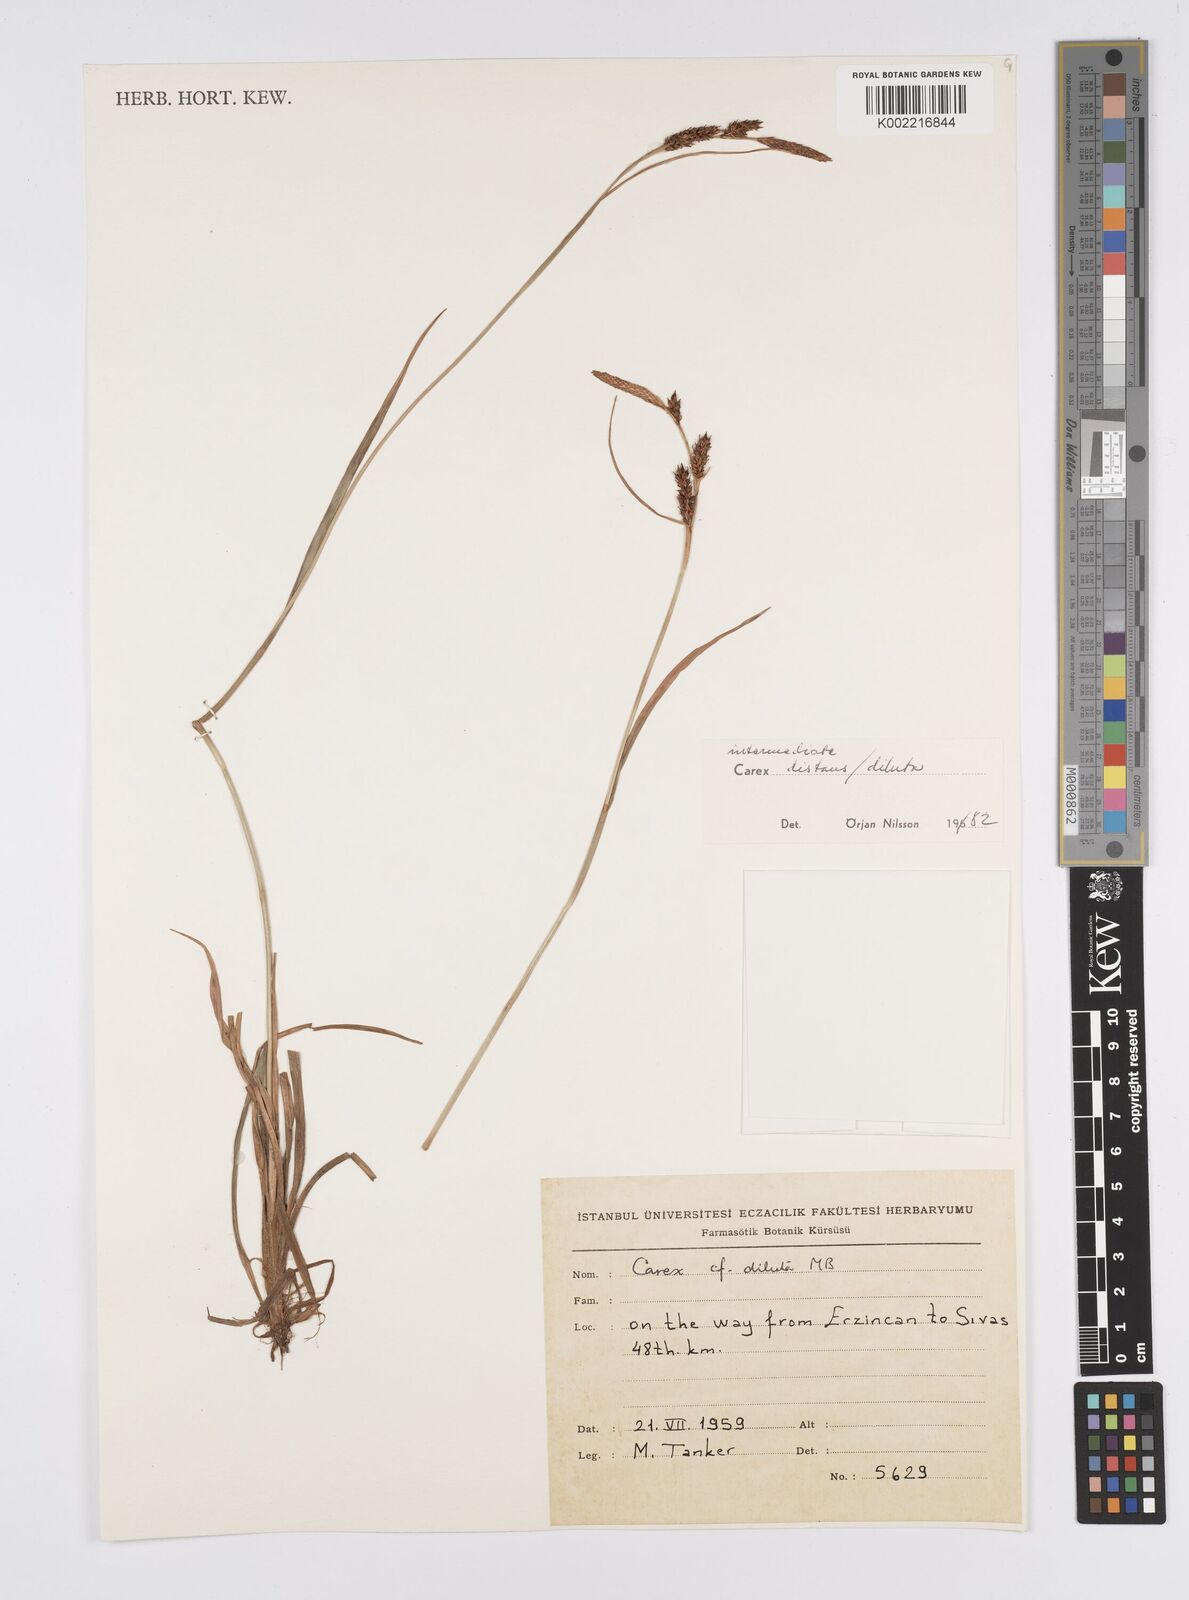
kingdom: Plantae
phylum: Tracheophyta
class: Liliopsida
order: Poales
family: Cyperaceae
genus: Carex
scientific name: Carex diluta
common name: Sedge
